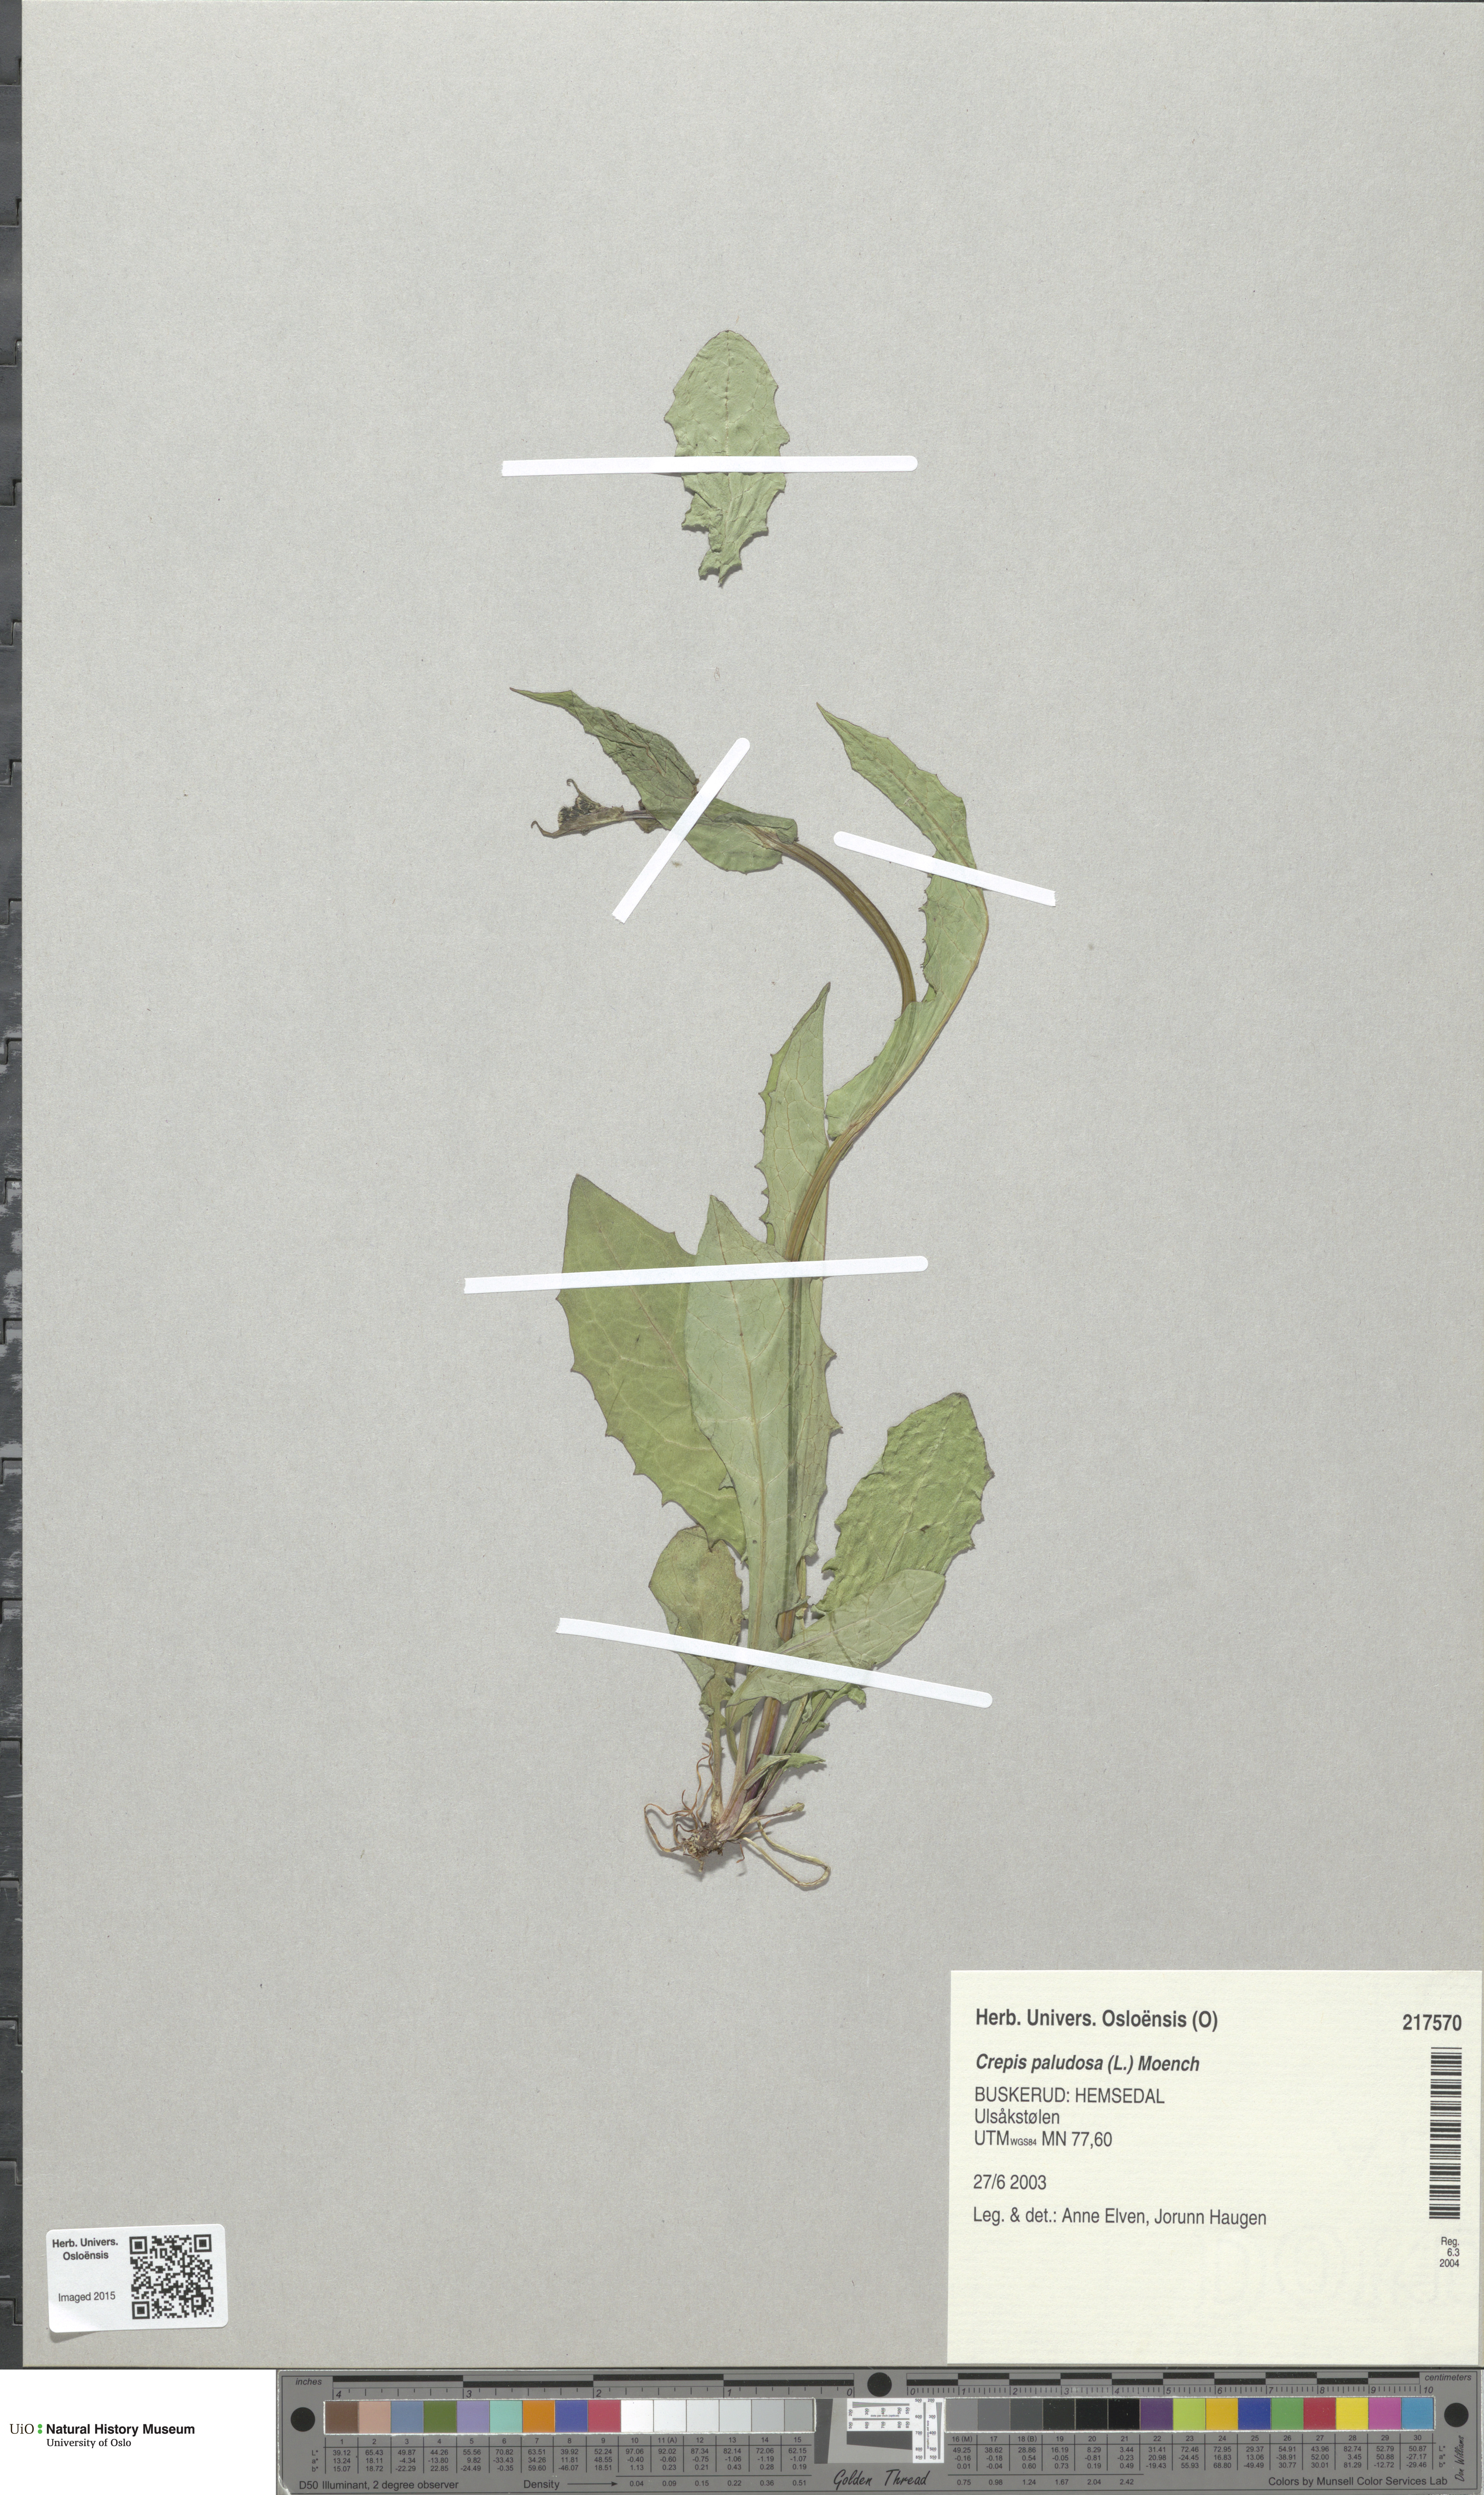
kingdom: Plantae
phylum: Tracheophyta
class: Magnoliopsida
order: Asterales
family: Asteraceae
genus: Crepis
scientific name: Crepis paludosa
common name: Marsh hawk's-beard
